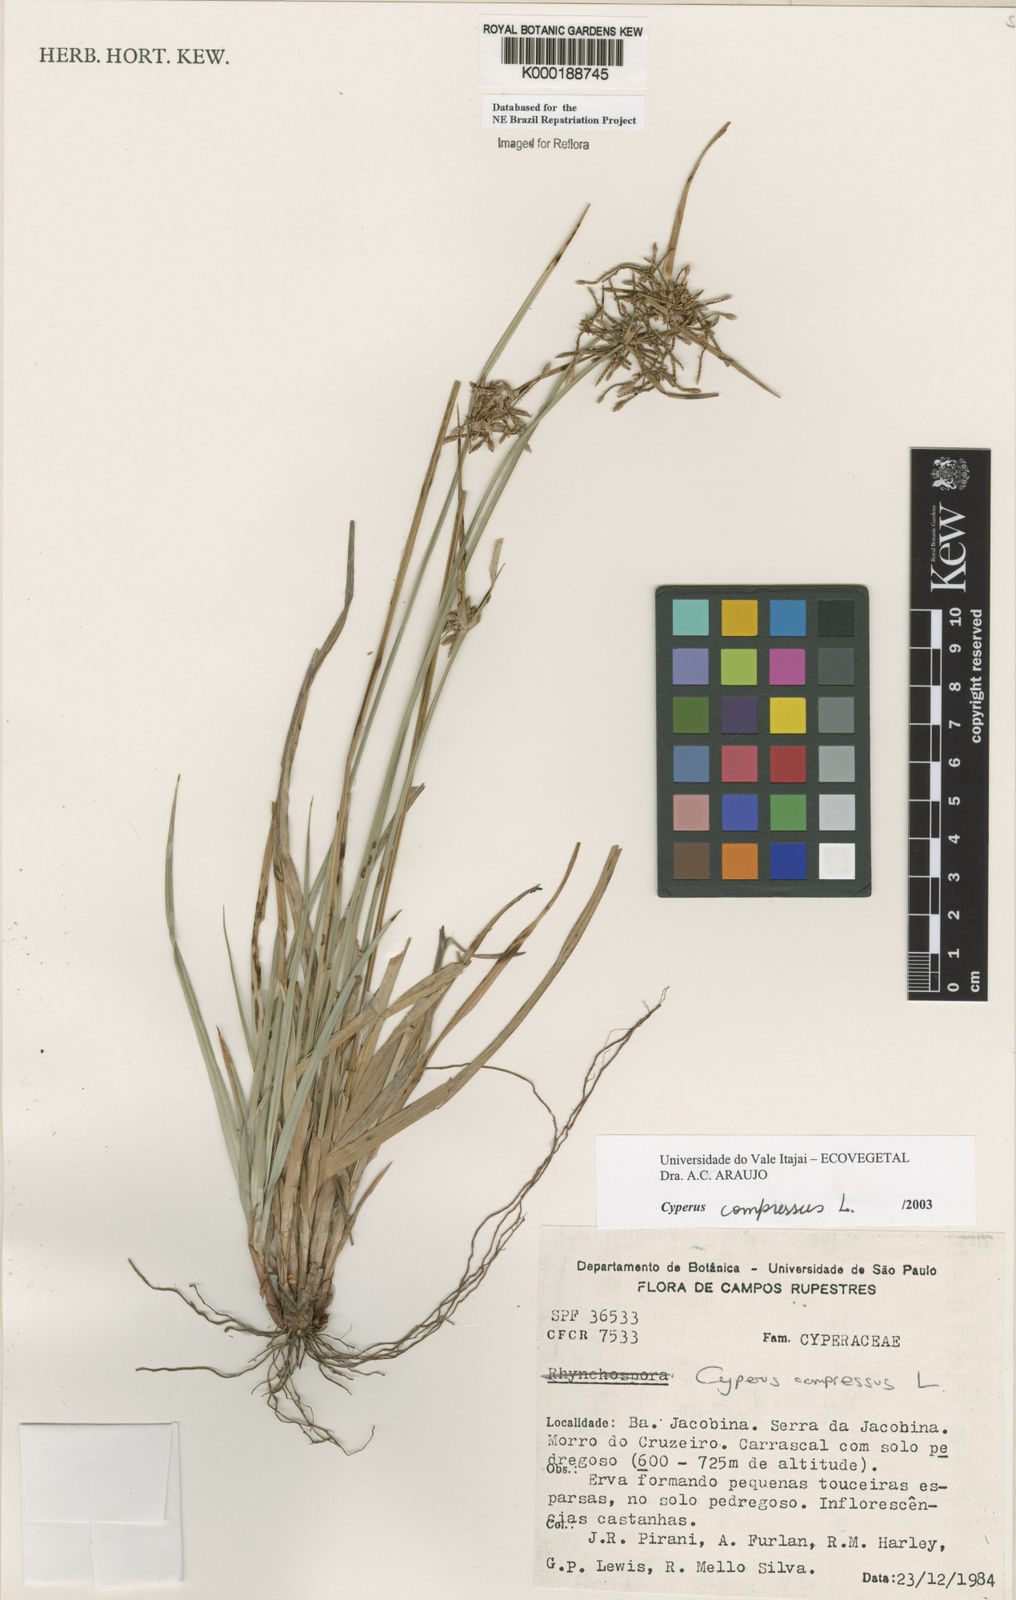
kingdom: Plantae
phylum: Tracheophyta
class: Liliopsida
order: Poales
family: Cyperaceae
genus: Cyperus
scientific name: Cyperus compressus
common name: Poorland flatsedge
